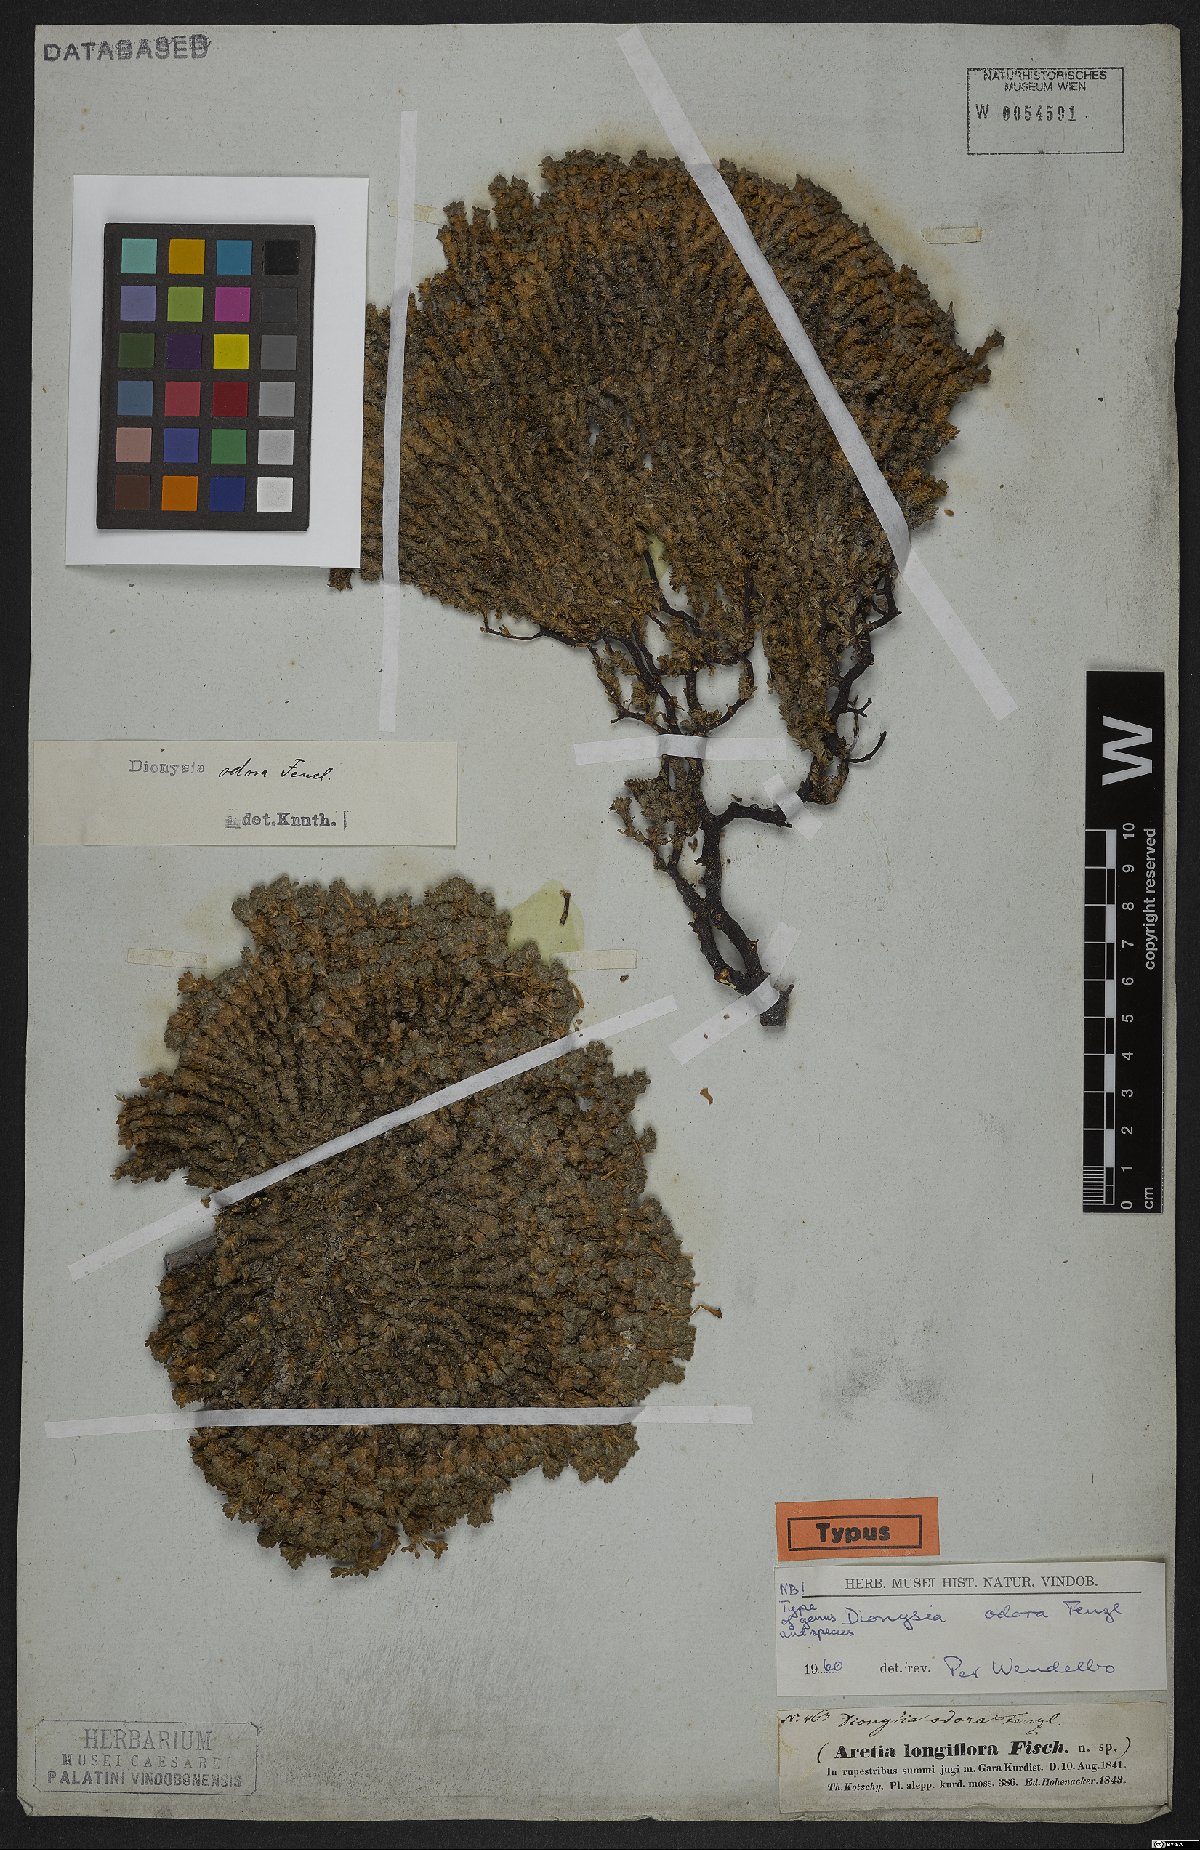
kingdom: Plantae
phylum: Tracheophyta
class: Magnoliopsida
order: Ericales
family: Primulaceae
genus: Dionysia
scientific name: Dionysia odora
